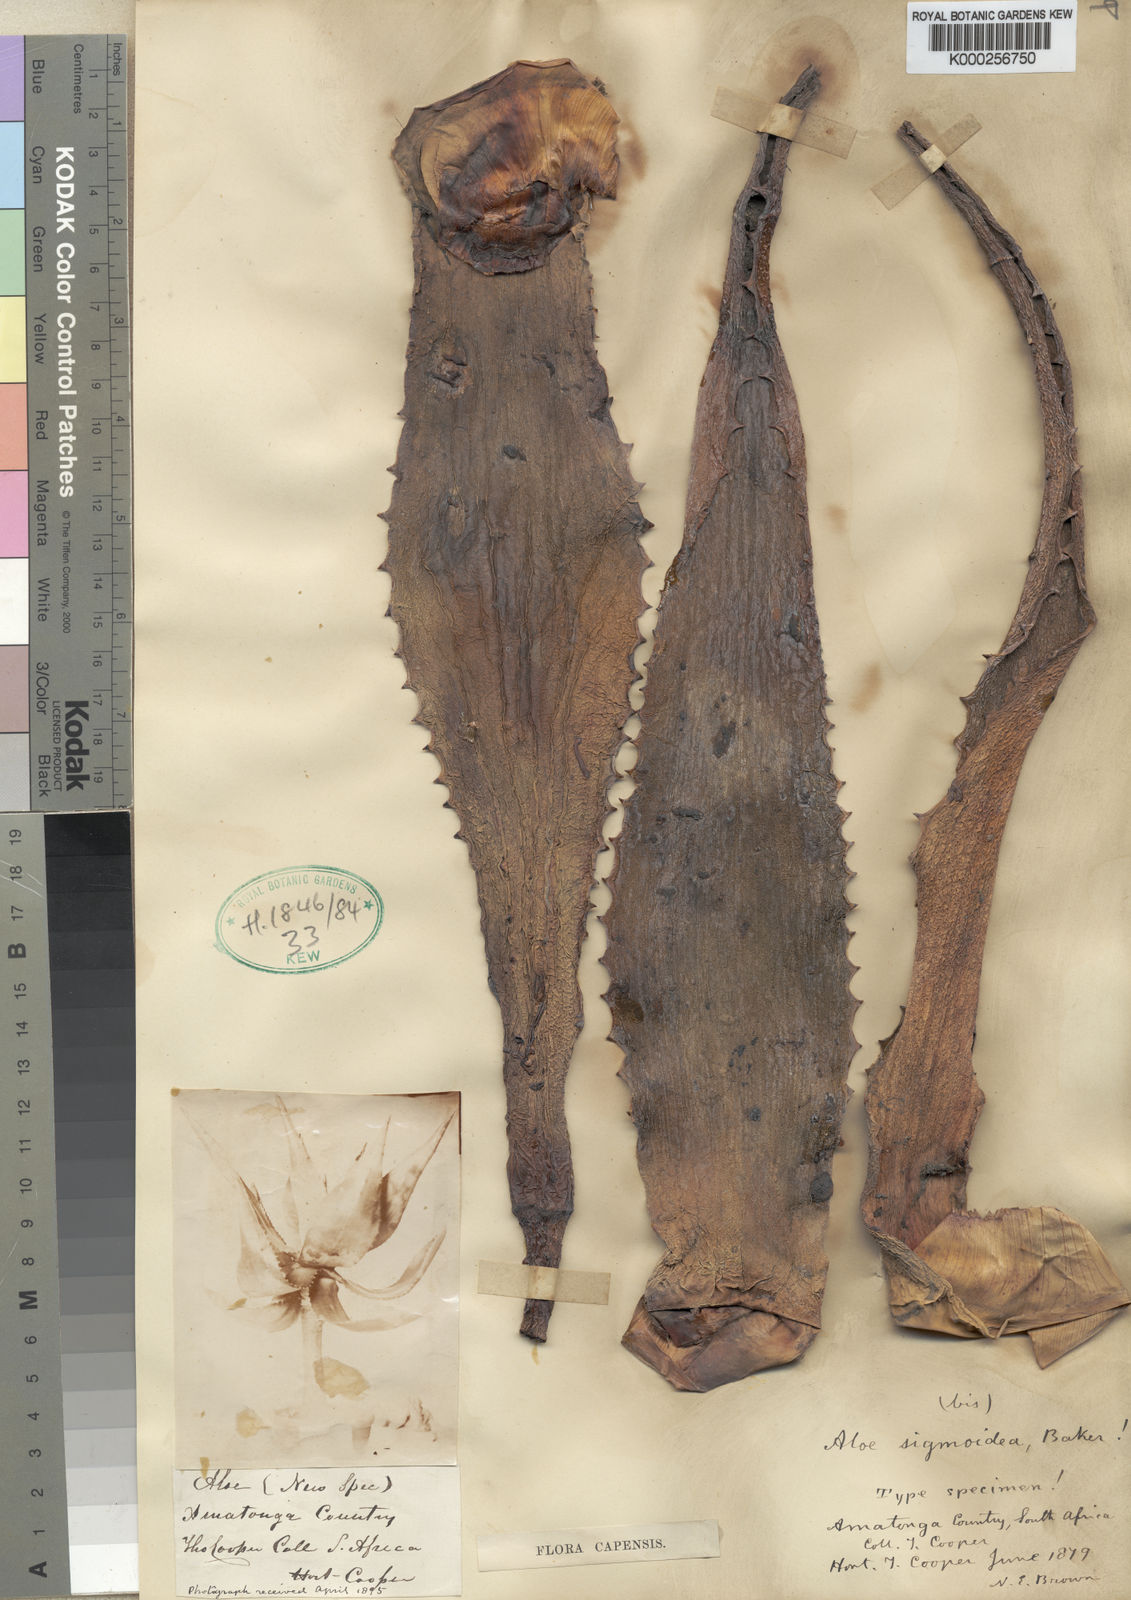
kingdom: Plantae
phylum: Tracheophyta
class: Liliopsida
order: Asparagales
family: Asphodelaceae
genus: Aloe
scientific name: Aloe arborescens
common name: Candelabra aloe
